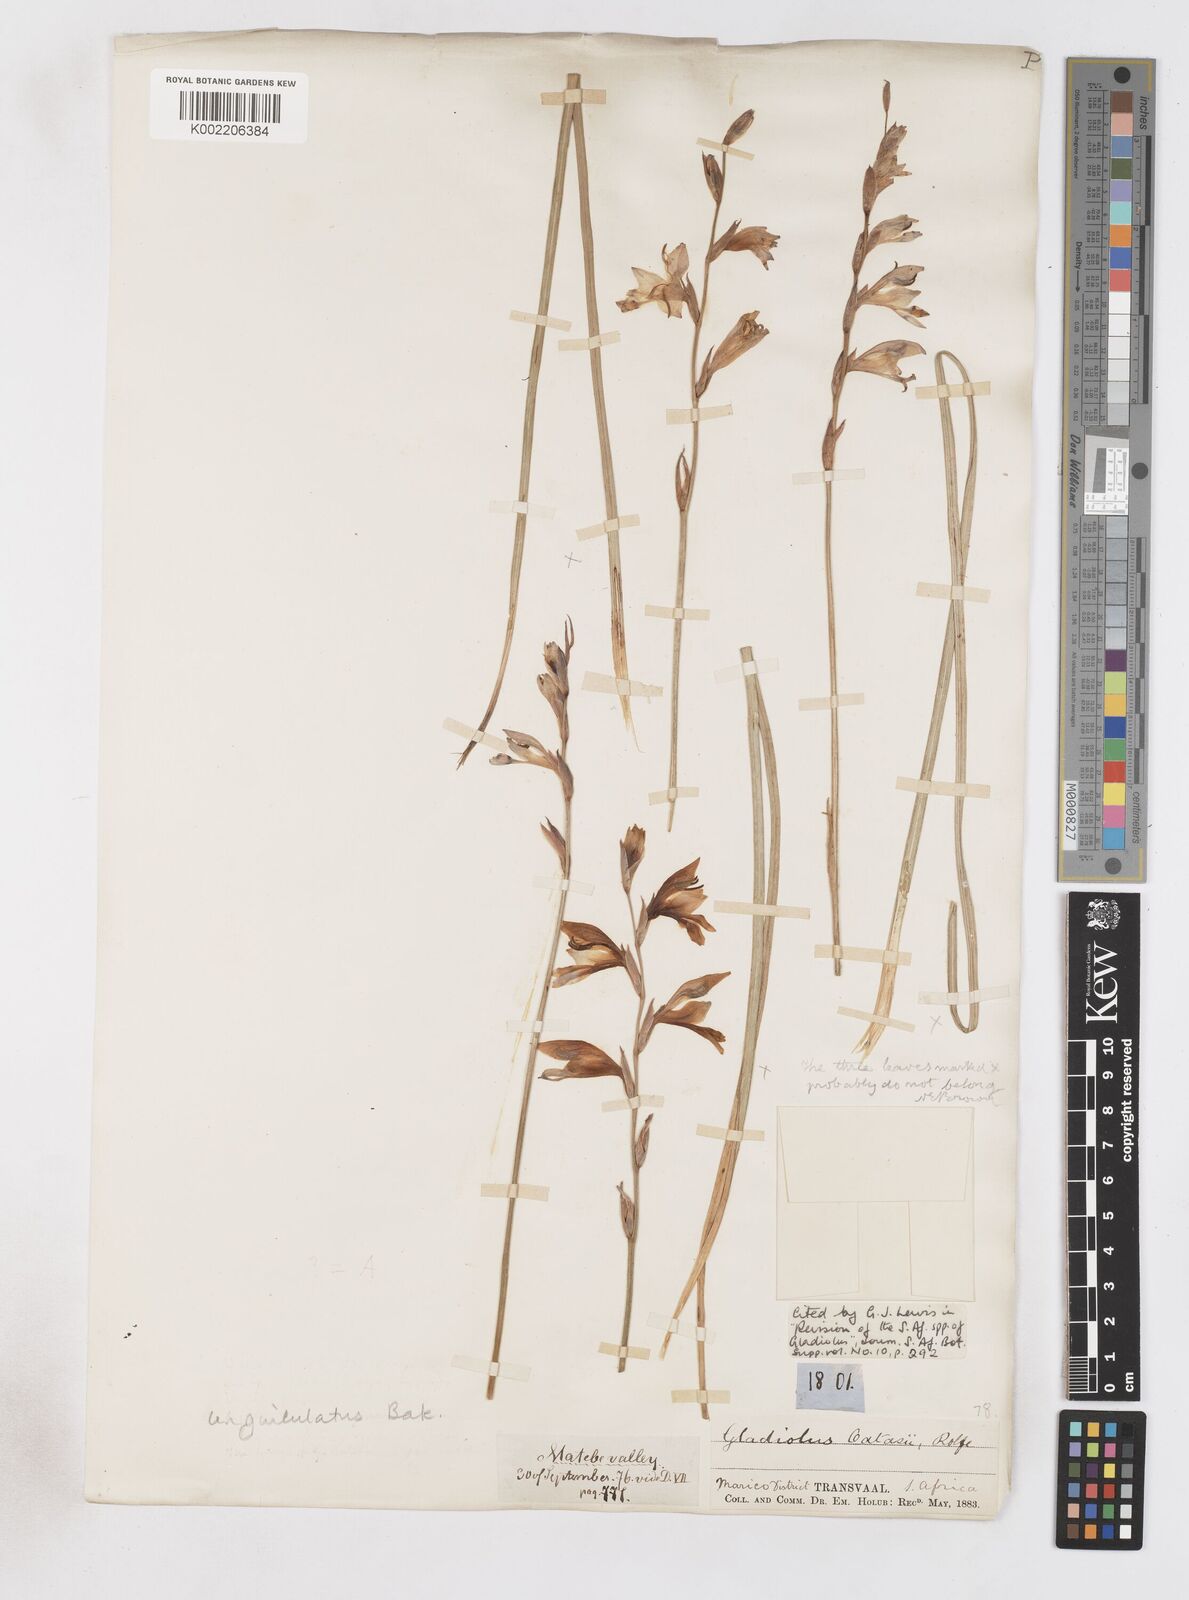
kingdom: Plantae
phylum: Tracheophyta
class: Liliopsida
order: Asparagales
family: Iridaceae
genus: Gladiolus
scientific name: Gladiolus unguiculatus
